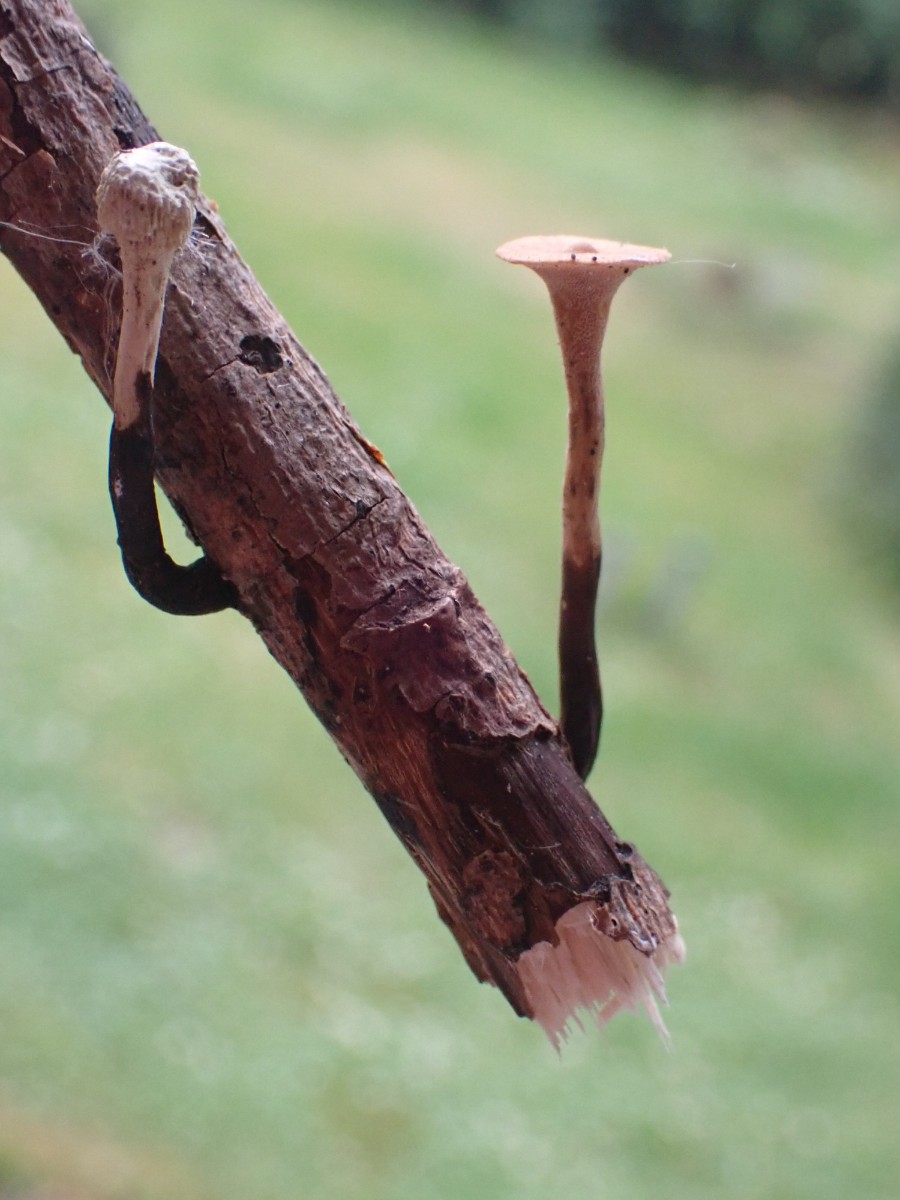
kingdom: Fungi
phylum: Basidiomycota
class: Agaricomycetes
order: Polyporales
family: Polyporaceae
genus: Cerioporus
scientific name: Cerioporus varius
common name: foranderlig stilkporesvamp
